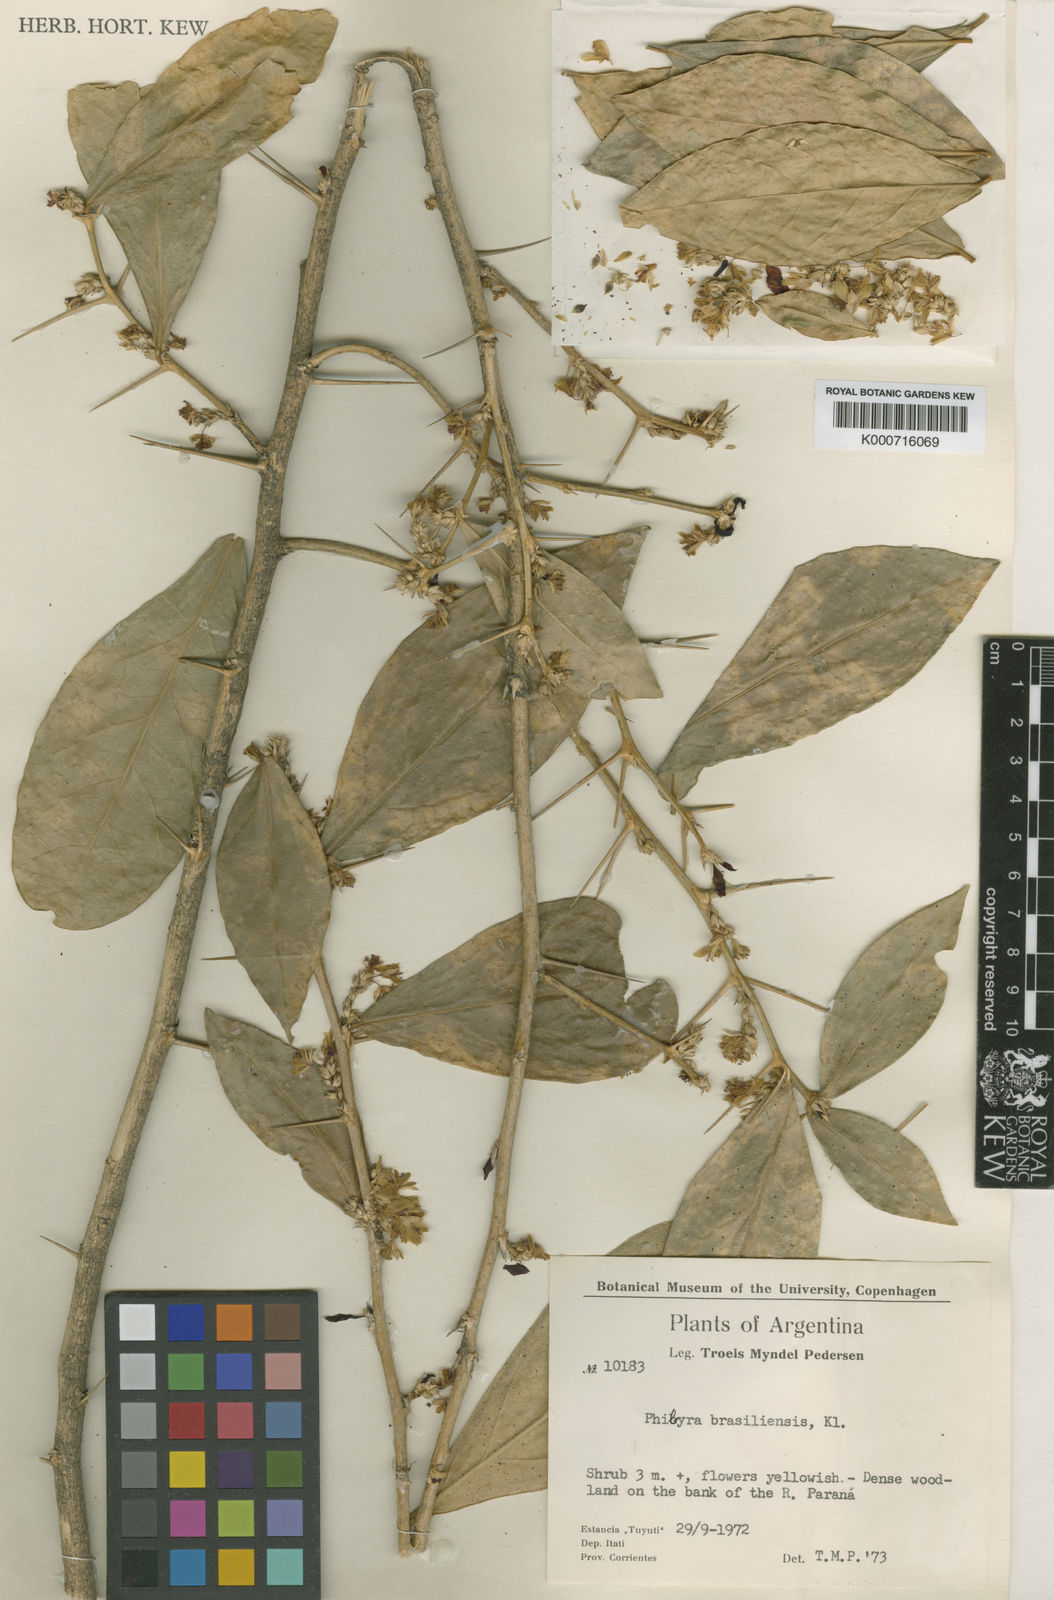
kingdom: Plantae
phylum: Tracheophyta
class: Magnoliopsida
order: Malpighiales
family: Euphorbiaceae
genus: Philyra
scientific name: Philyra brasiliensis
